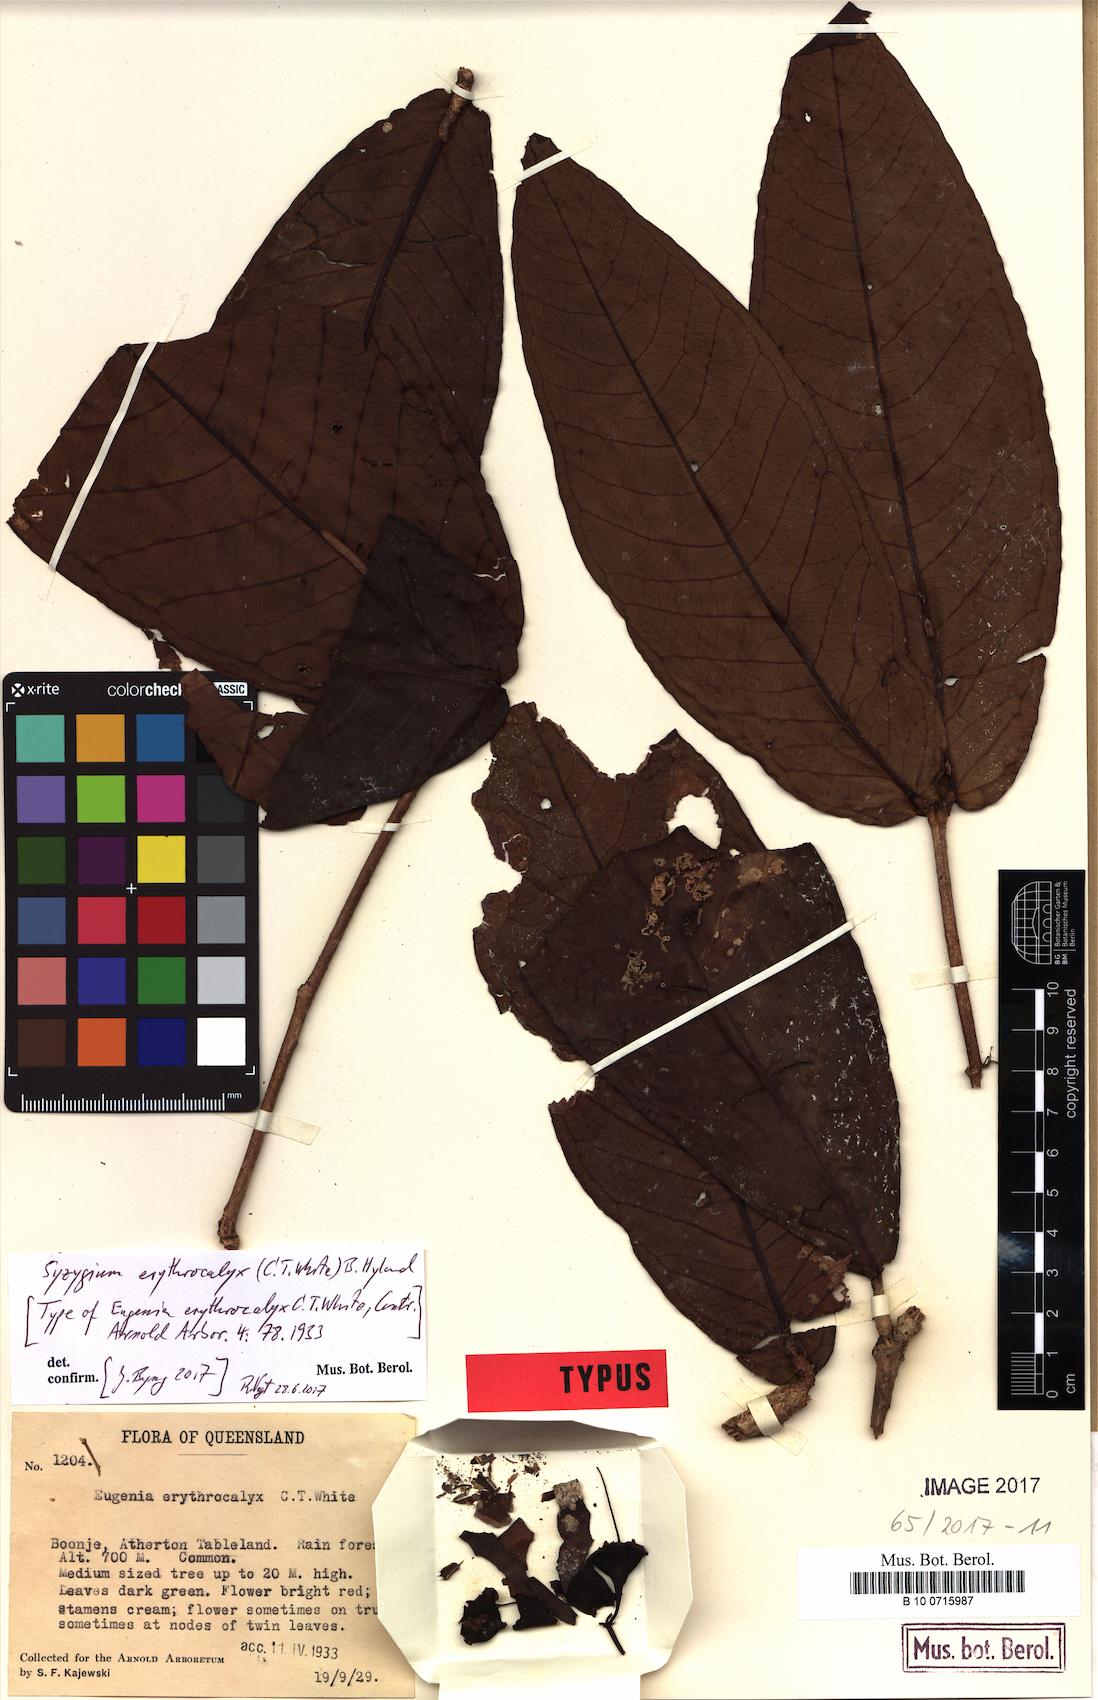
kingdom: Plantae
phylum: Tracheophyta
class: Magnoliopsida
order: Myrtales
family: Myrtaceae
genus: Syzygium
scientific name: Syzygium erythrocalyx
